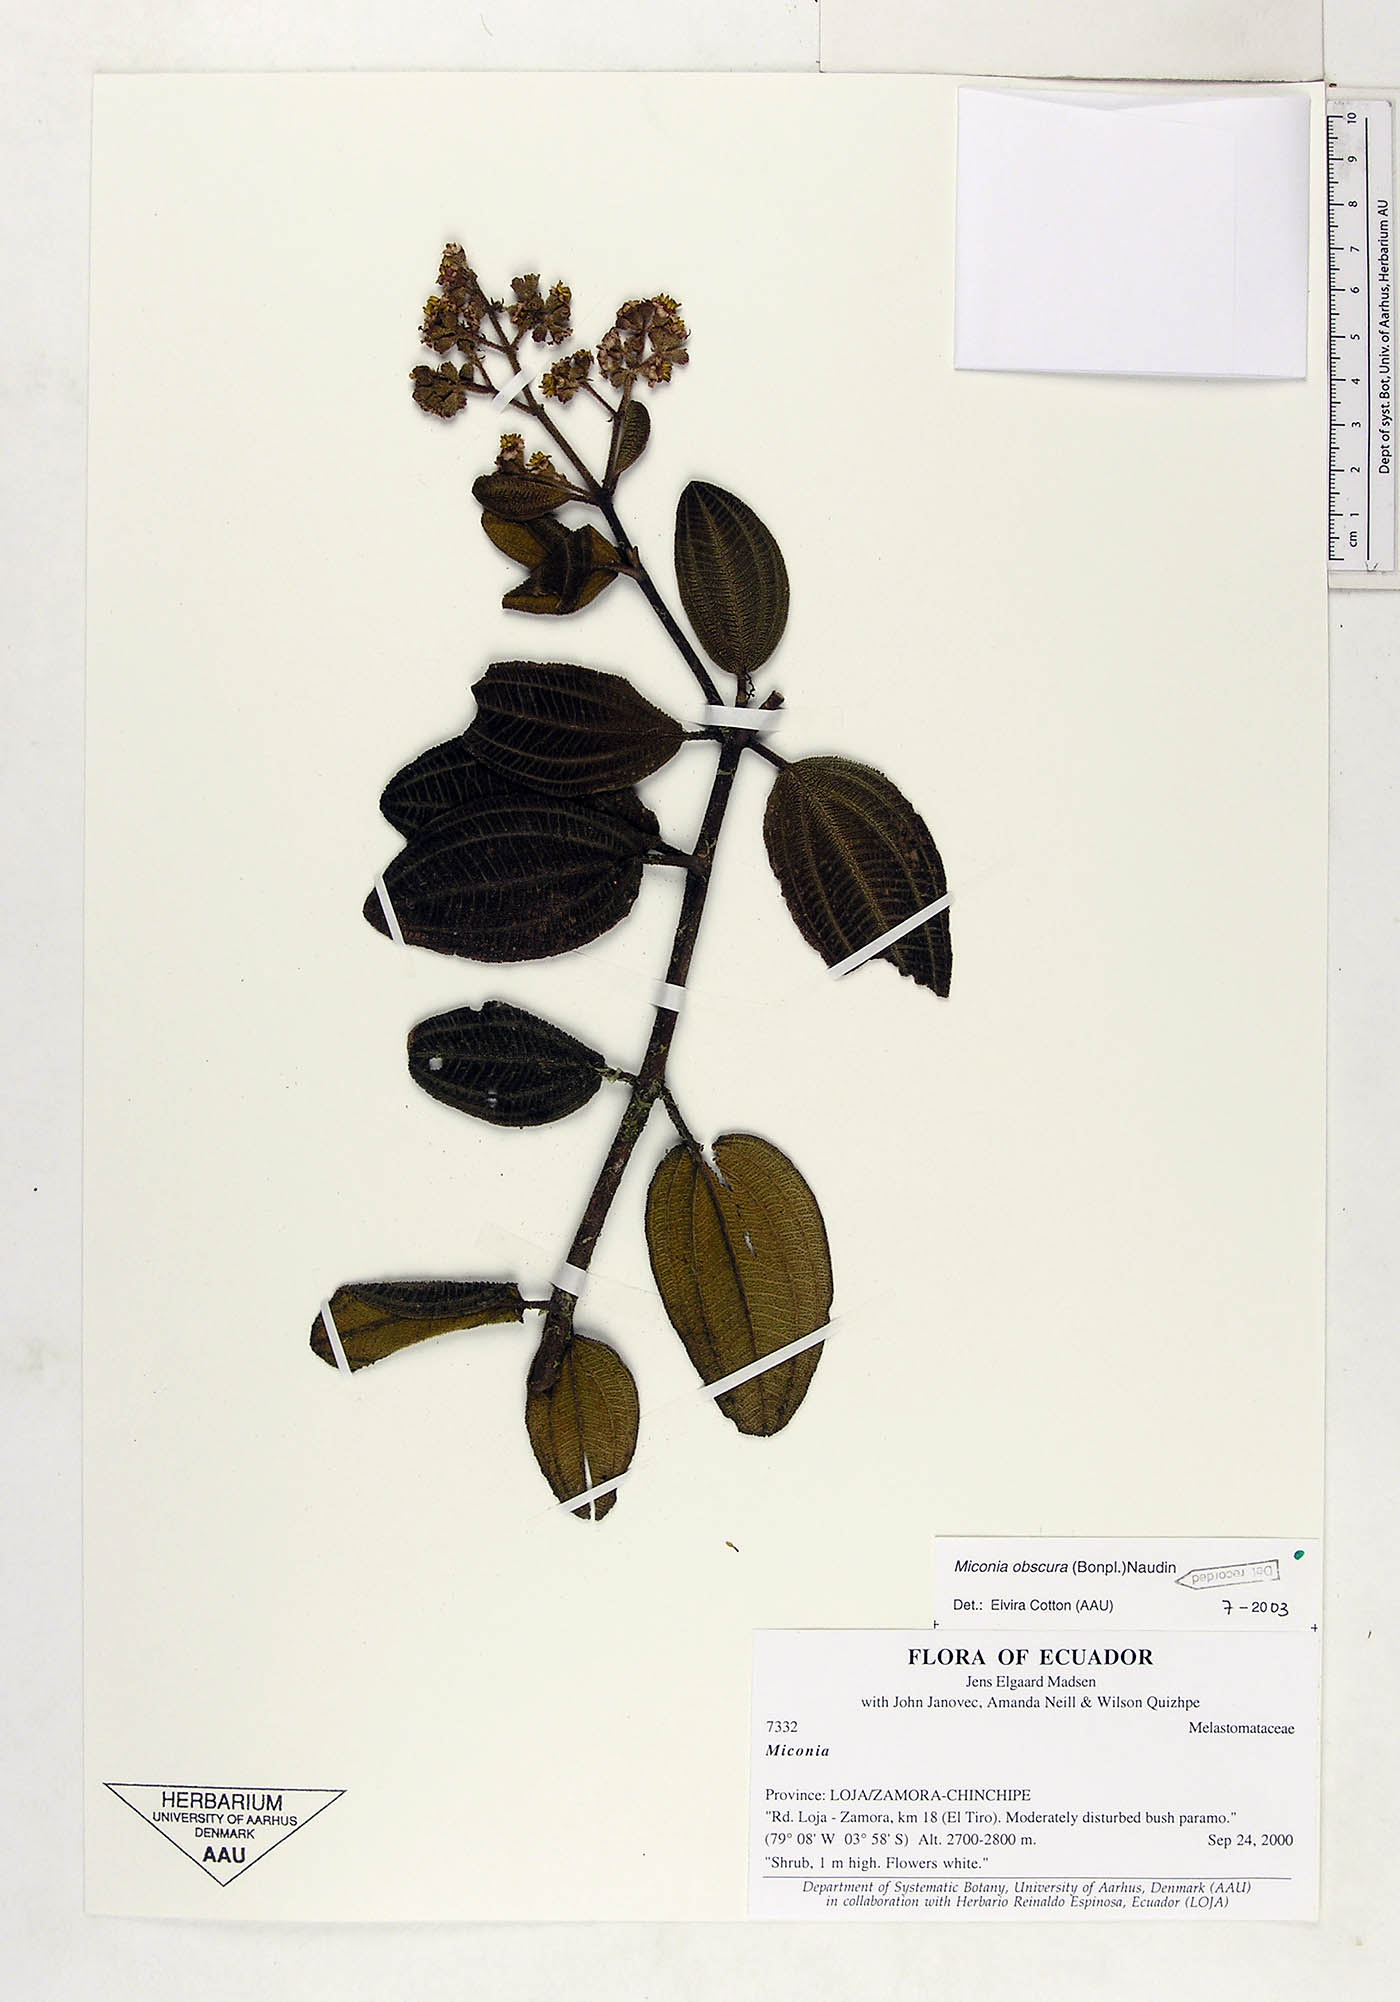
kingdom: Plantae
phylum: Tracheophyta
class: Magnoliopsida
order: Myrtales
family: Melastomataceae
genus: Miconia
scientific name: Miconia obscura
